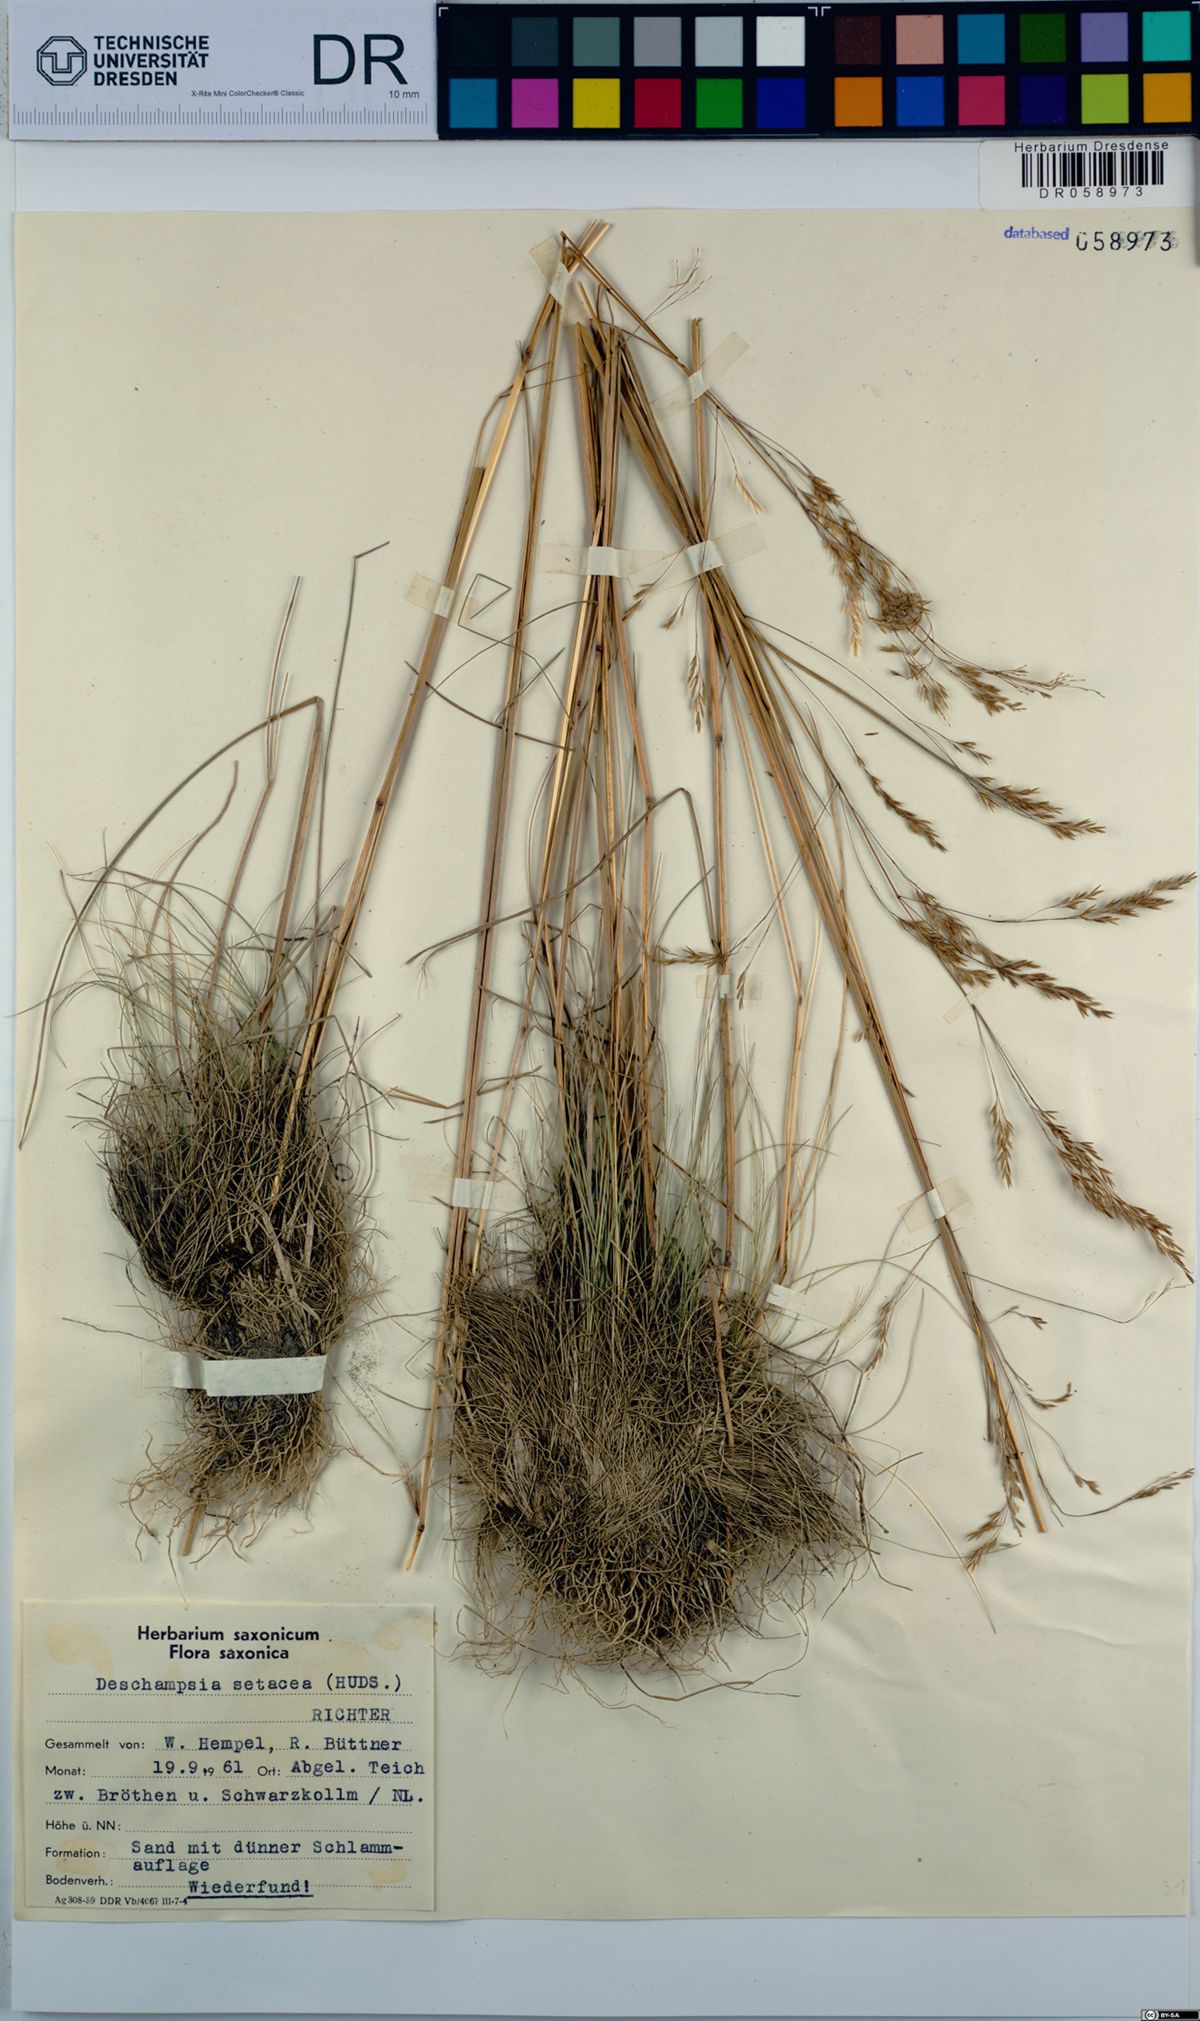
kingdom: Plantae
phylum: Tracheophyta
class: Liliopsida
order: Poales
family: Poaceae
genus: Deschampsia
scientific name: Deschampsia setacea
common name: Bog hair-grass
